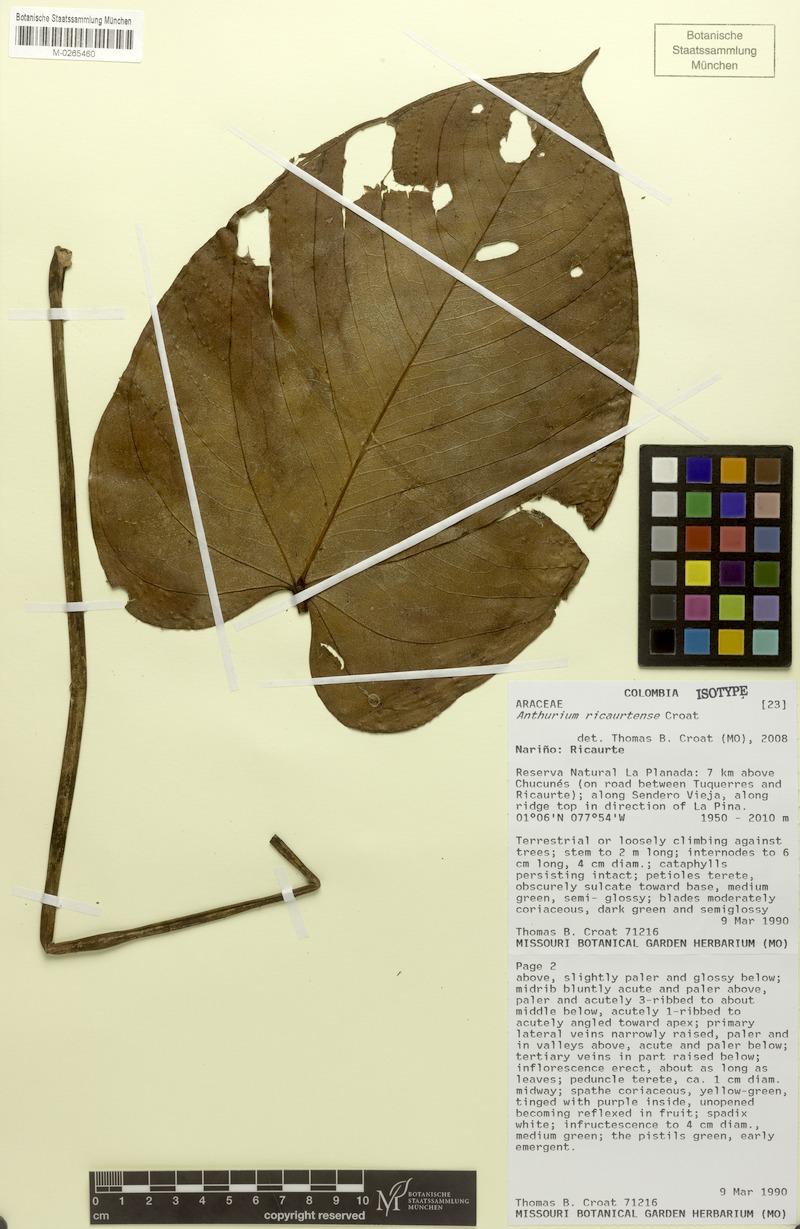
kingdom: Plantae
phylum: Tracheophyta
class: Liliopsida
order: Alismatales
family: Araceae
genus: Anthurium
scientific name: Anthurium ricaurtense
